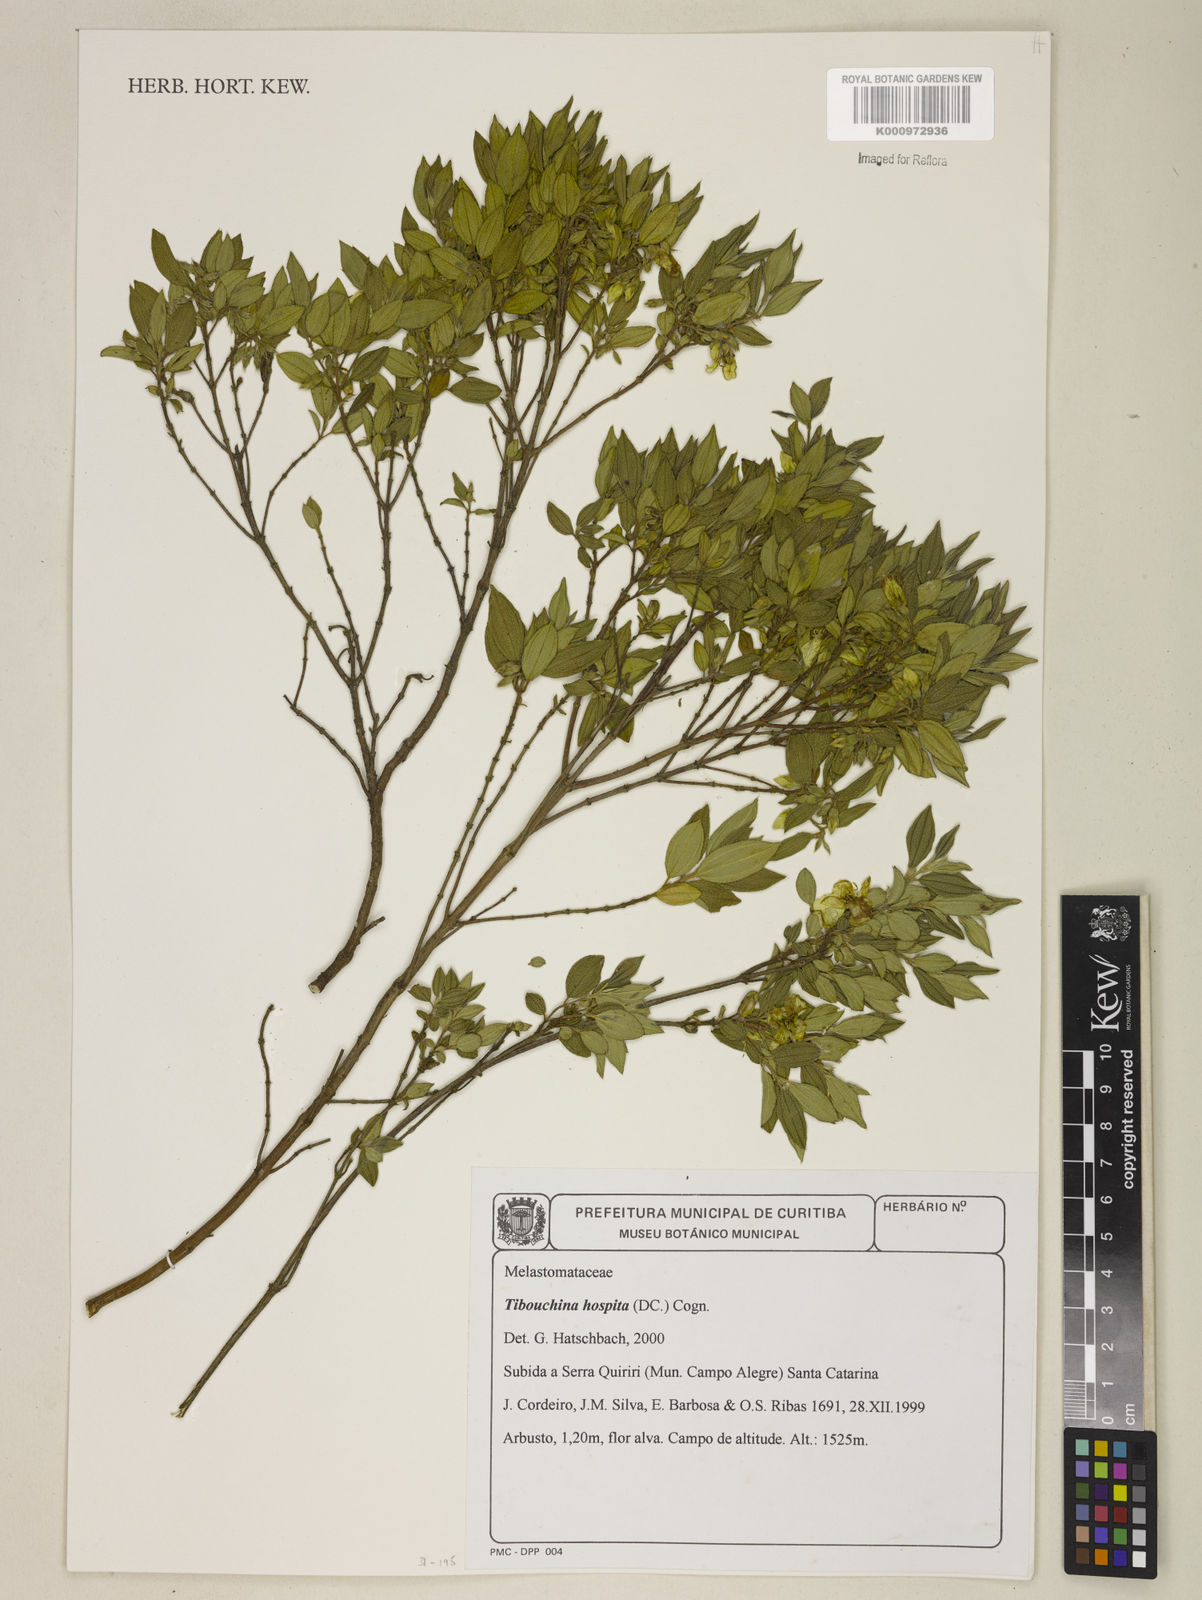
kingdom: Plantae
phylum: Tracheophyta
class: Magnoliopsida
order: Myrtales
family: Melastomataceae
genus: Pleroma
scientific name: Pleroma hospitum
